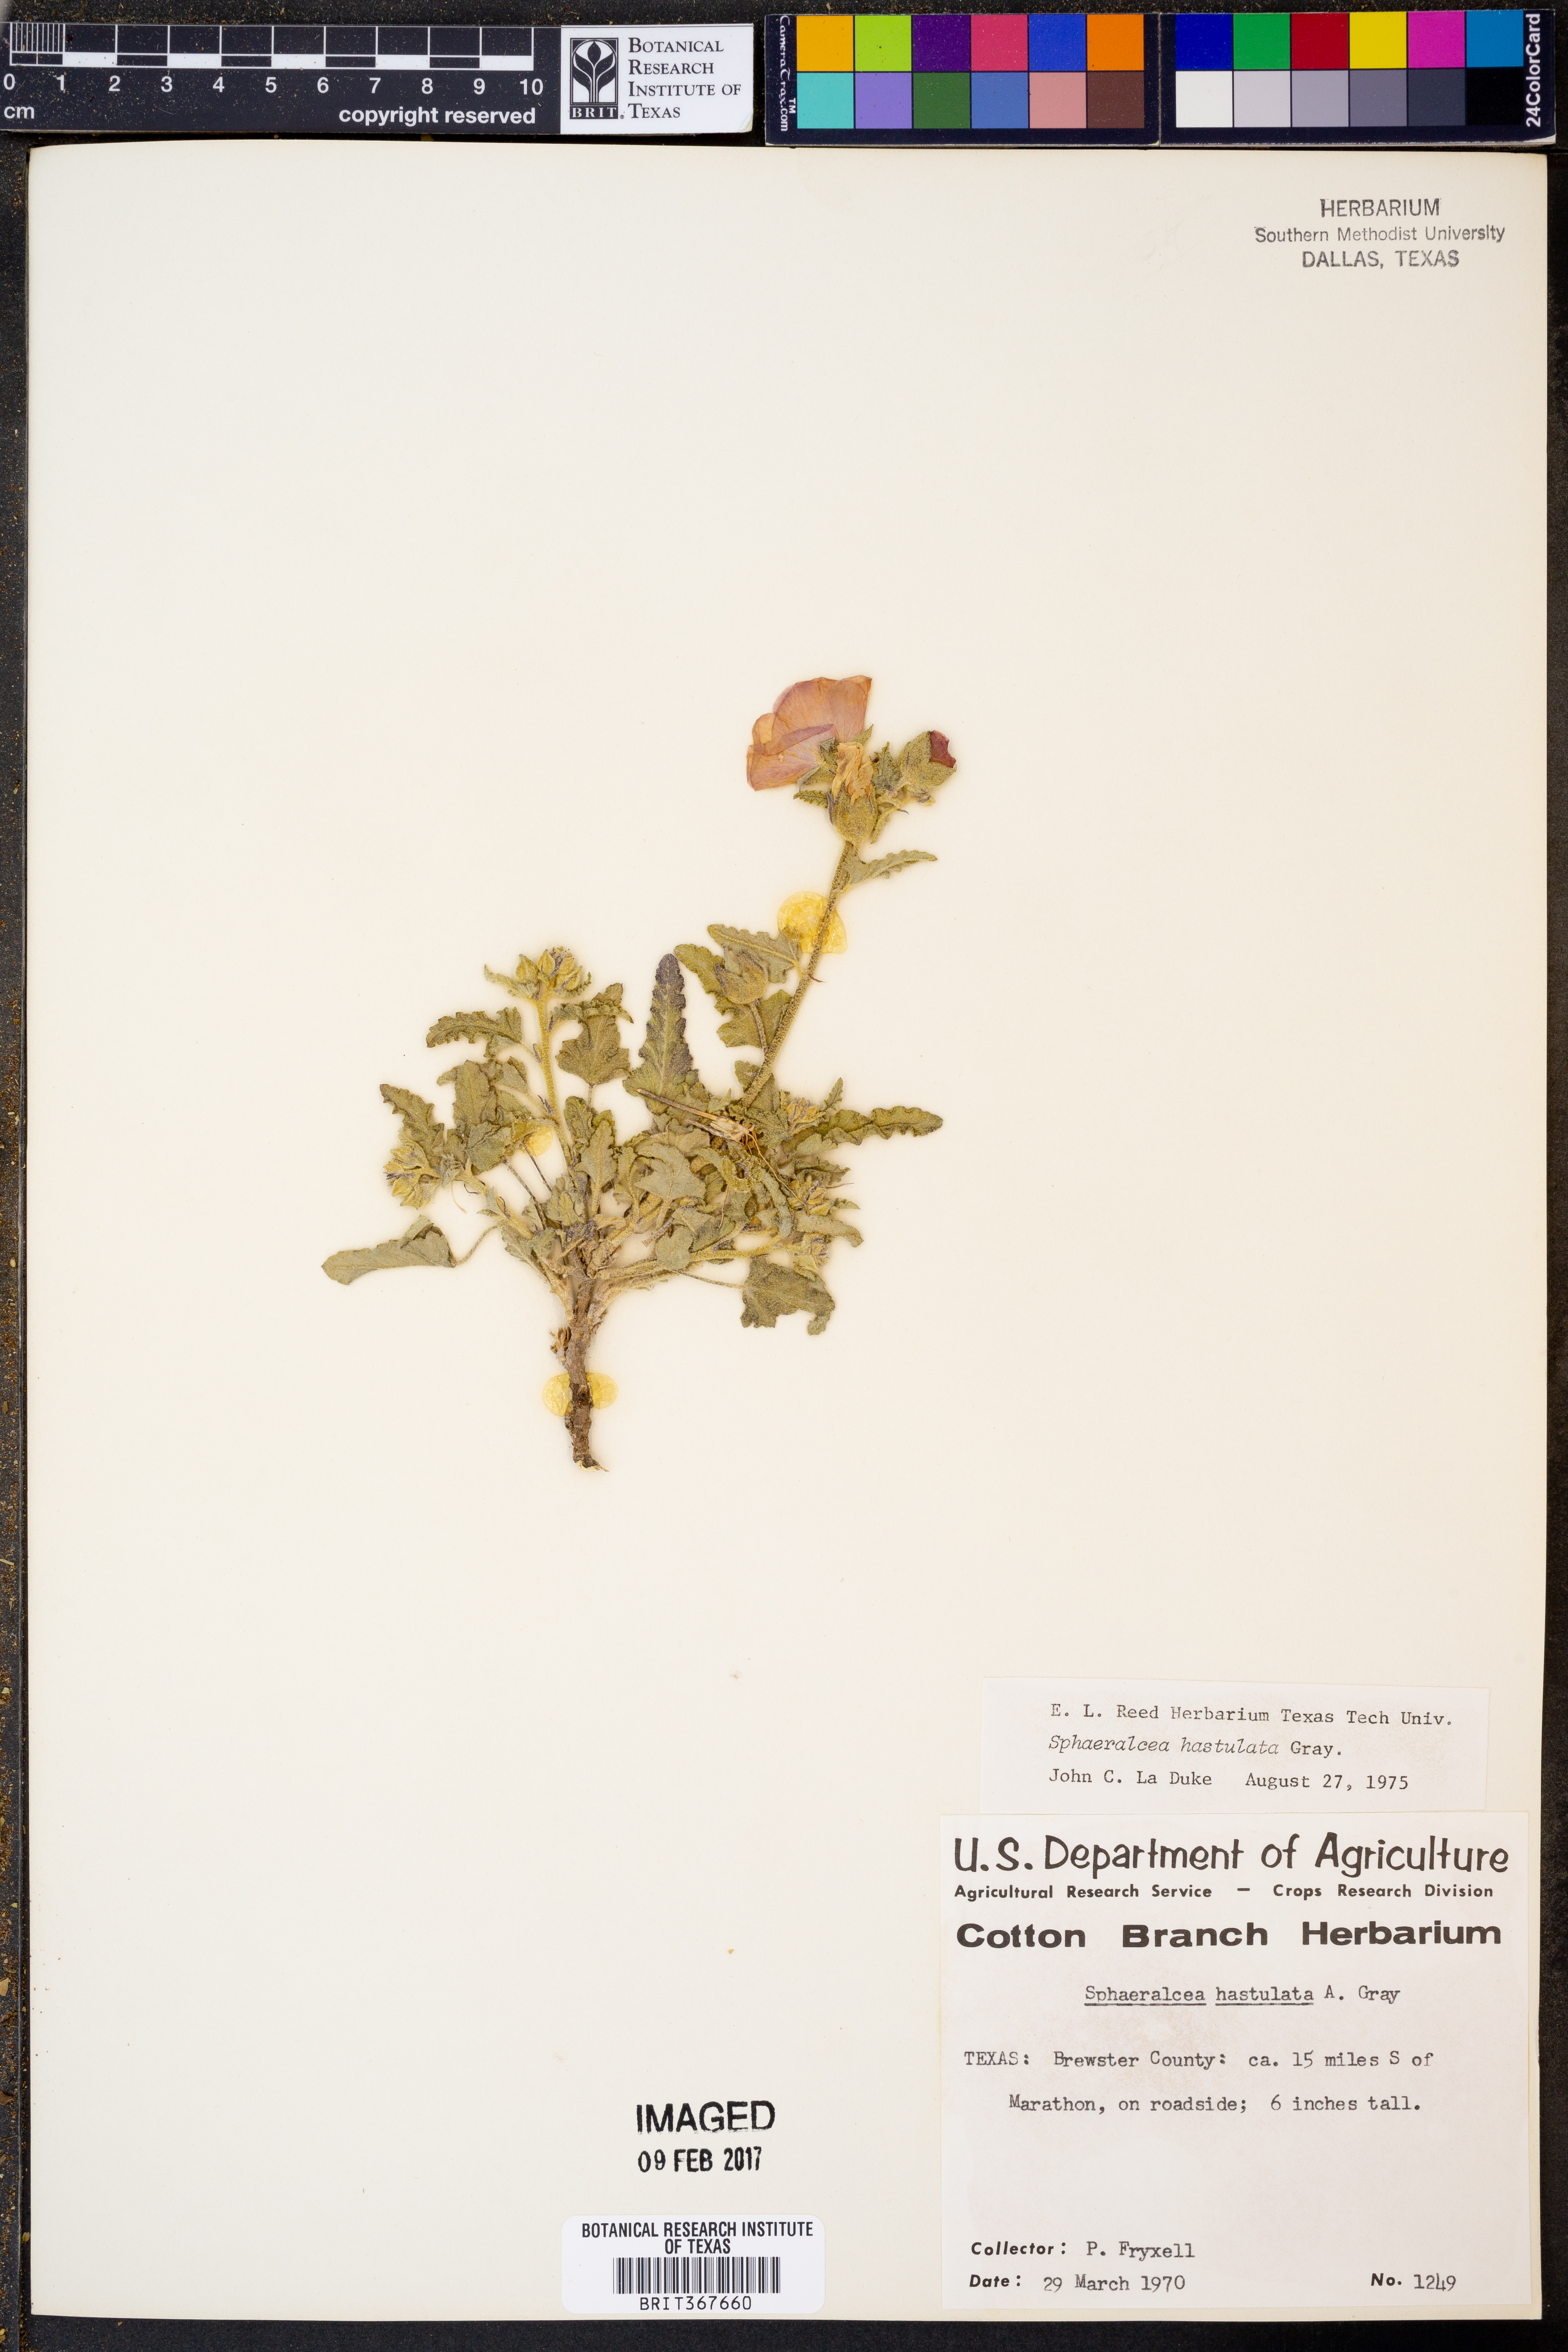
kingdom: Plantae
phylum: Tracheophyta
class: Magnoliopsida
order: Malvales
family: Malvaceae
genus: Sphaeralcea
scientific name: Sphaeralcea hastulata
